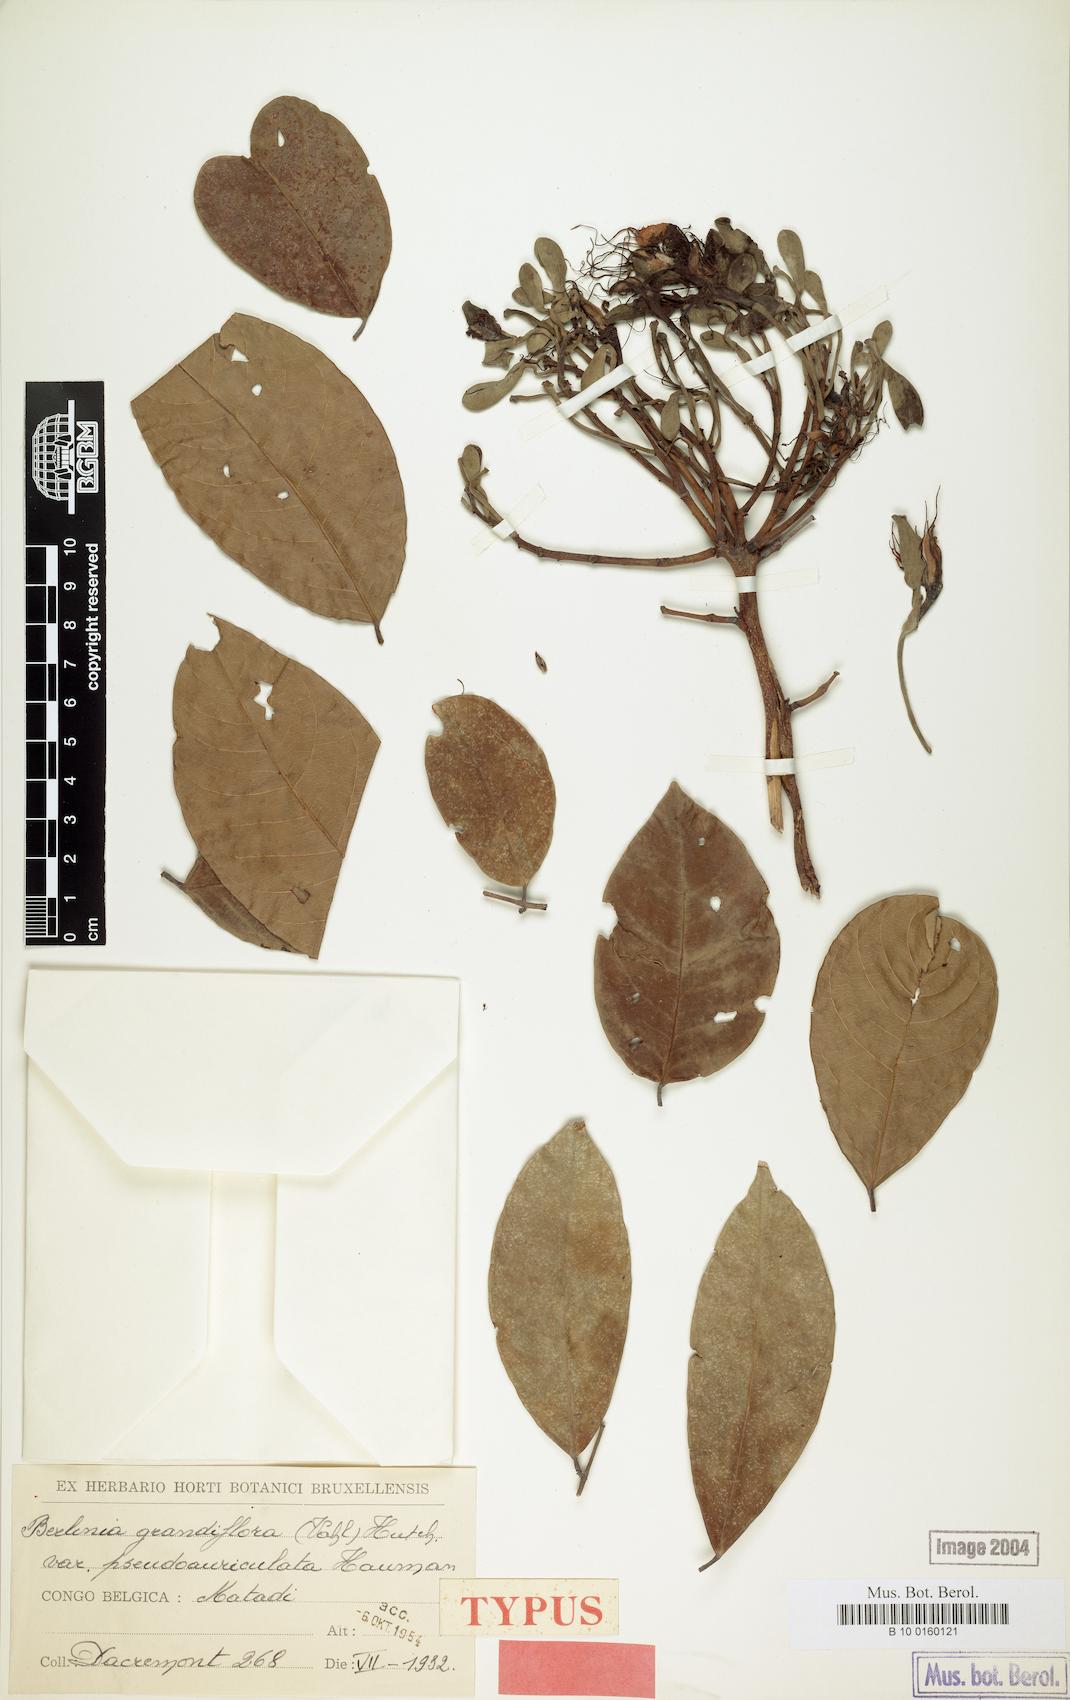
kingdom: Plantae
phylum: Tracheophyta
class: Magnoliopsida
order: Fabales
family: Fabaceae
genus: Berlinia
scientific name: Berlinia congolensis
